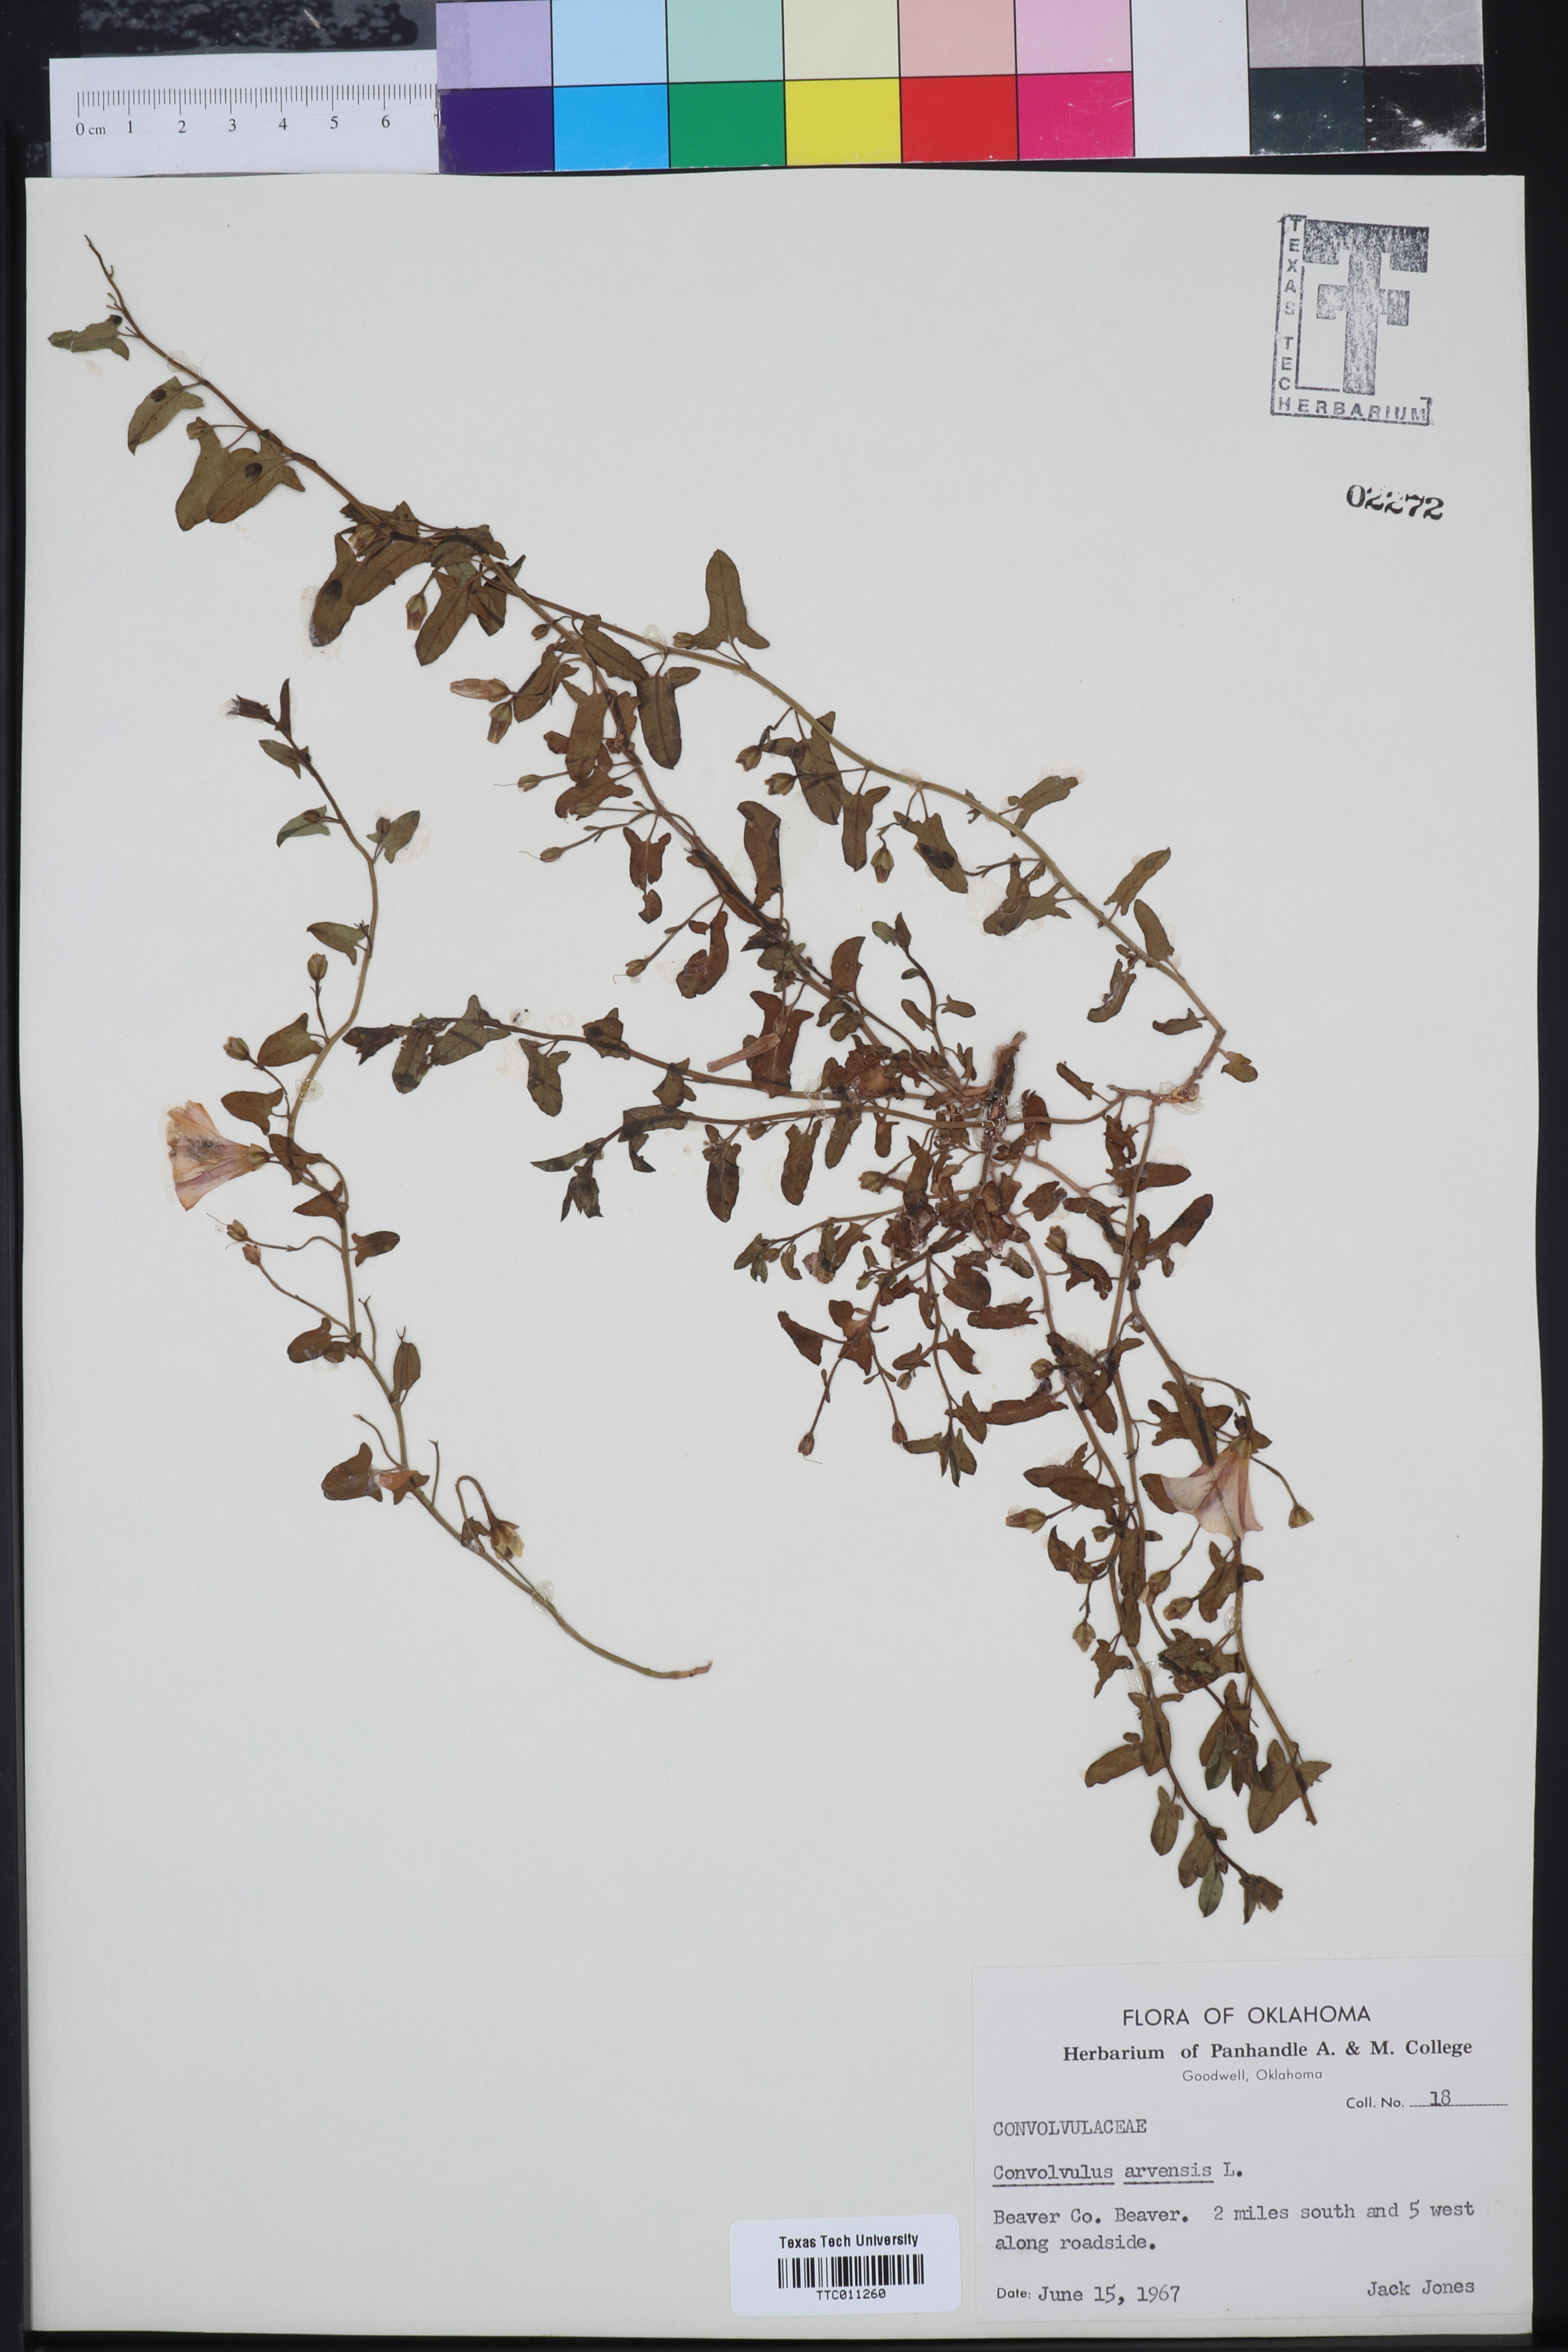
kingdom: Plantae
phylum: Tracheophyta
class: Magnoliopsida
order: Solanales
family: Convolvulaceae
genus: Convolvulus
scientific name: Convolvulus arvensis
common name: Field bindweed
